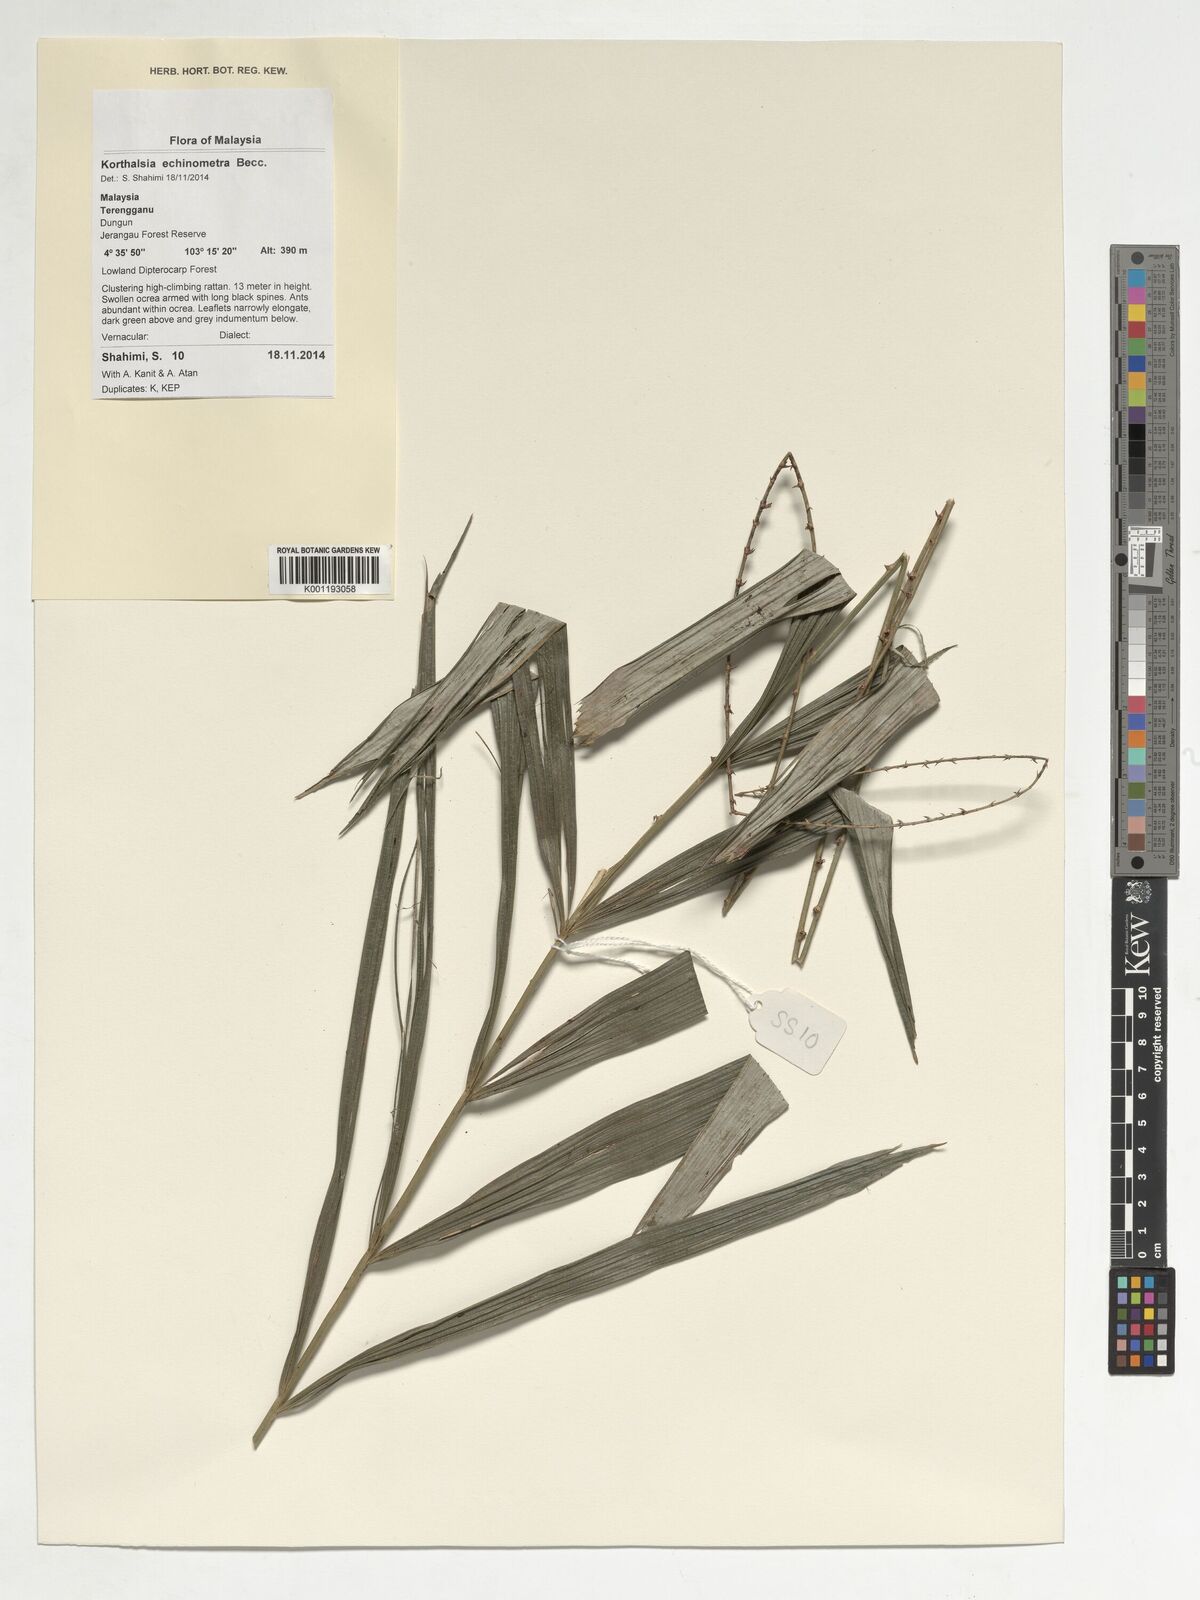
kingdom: Plantae
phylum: Tracheophyta
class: Liliopsida
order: Arecales
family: Arecaceae
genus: Korthalsia
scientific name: Korthalsia echinometra
